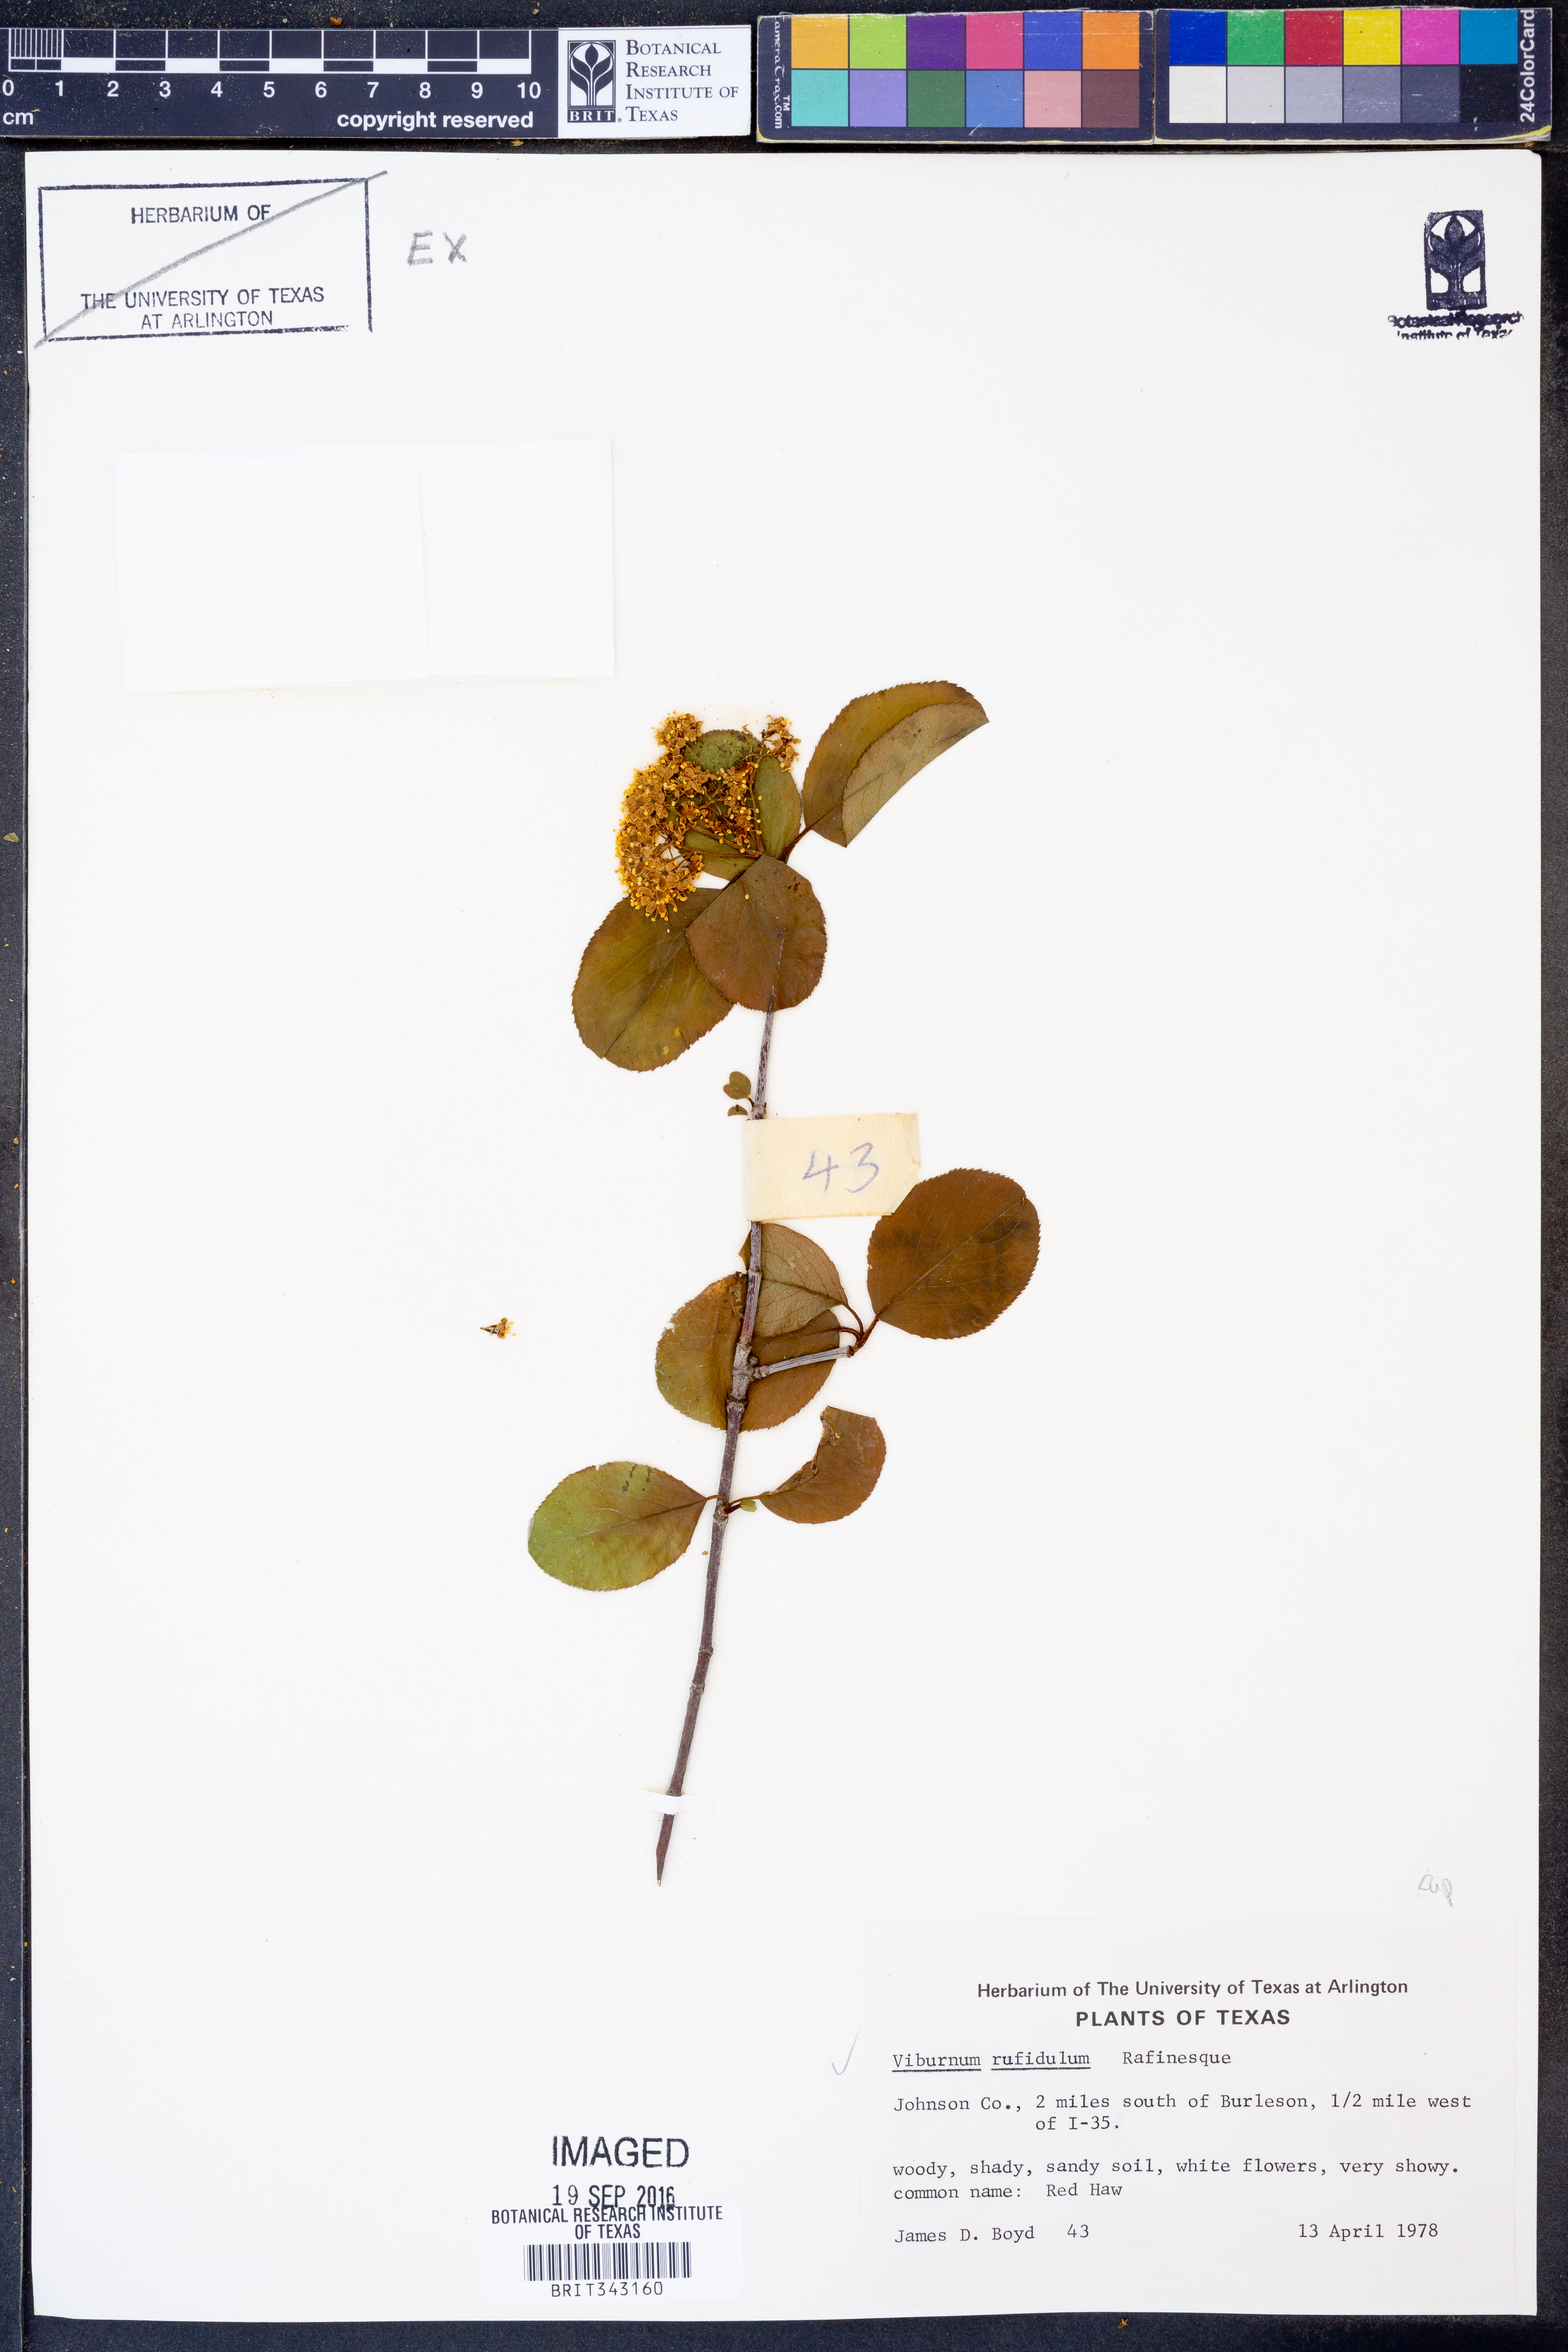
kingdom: Plantae
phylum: Tracheophyta
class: Magnoliopsida
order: Dipsacales
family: Viburnaceae
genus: Viburnum
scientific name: Viburnum rufidulum
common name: Blue haw
